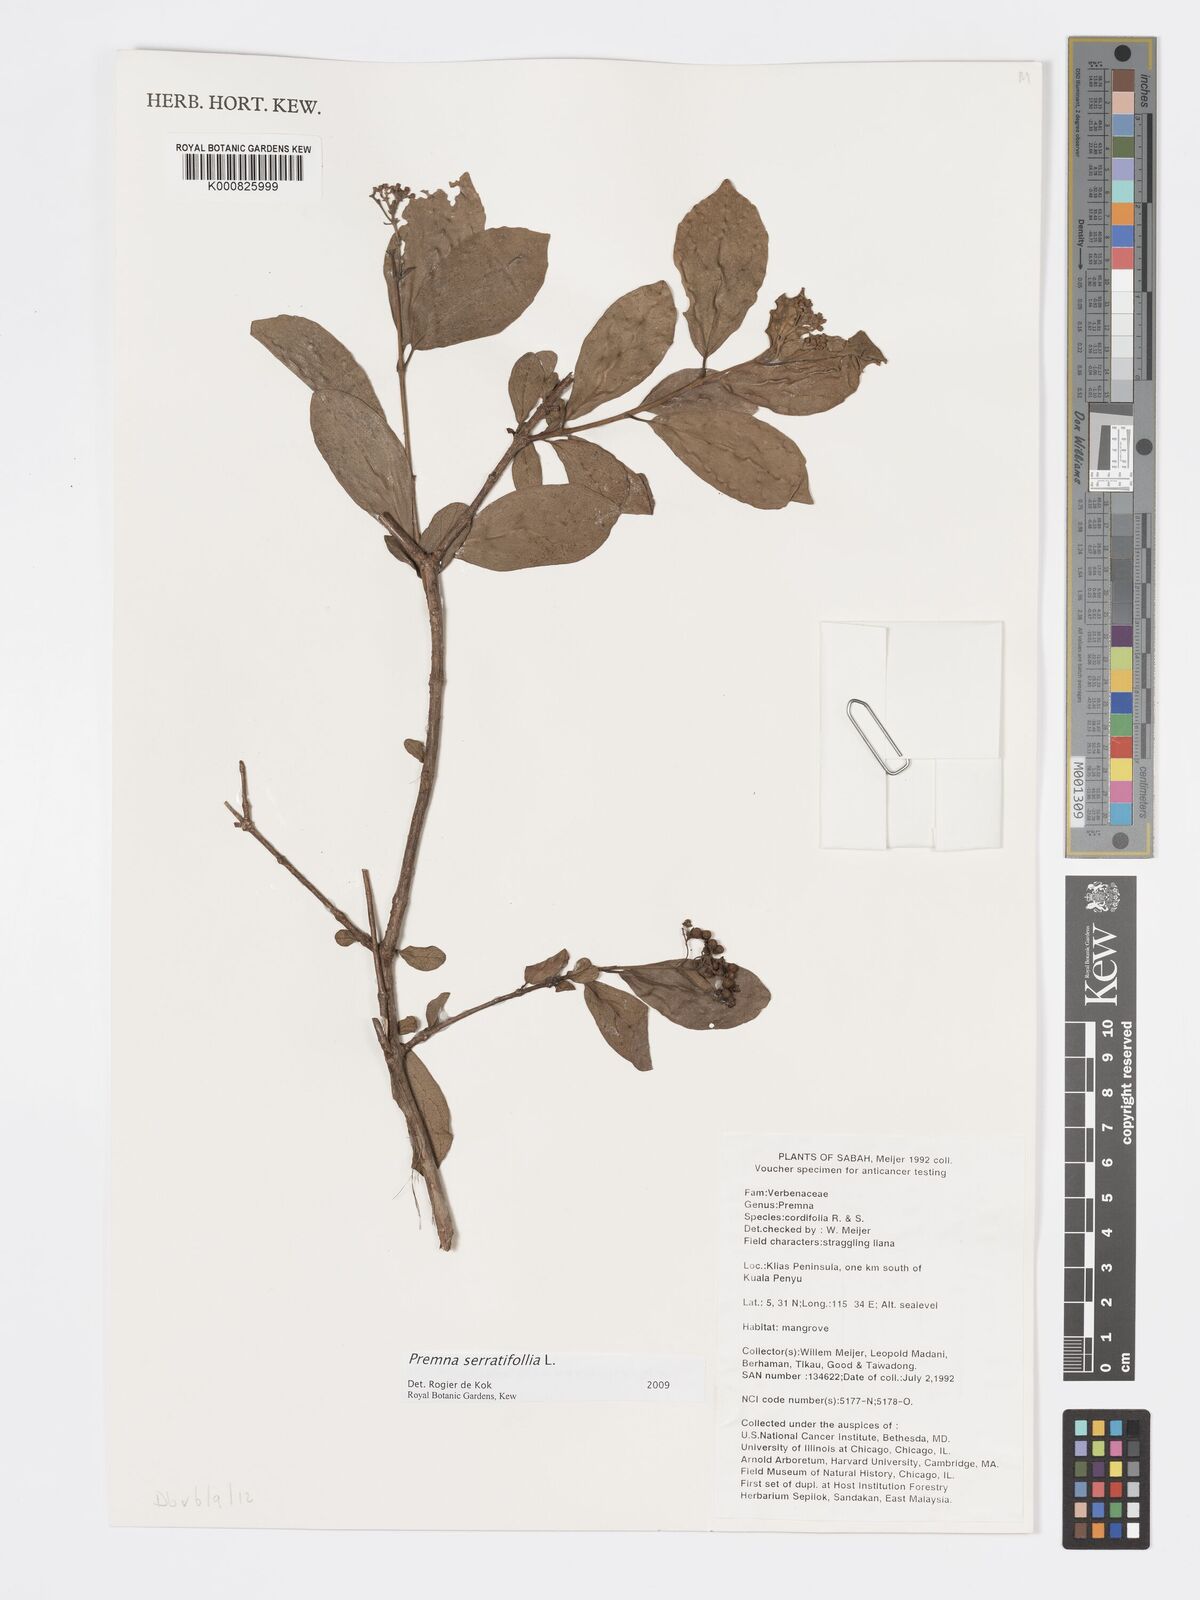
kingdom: Plantae
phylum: Tracheophyta
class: Magnoliopsida
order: Lamiales
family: Lamiaceae
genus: Premna
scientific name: Premna serratifolia
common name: Bastard guelder
